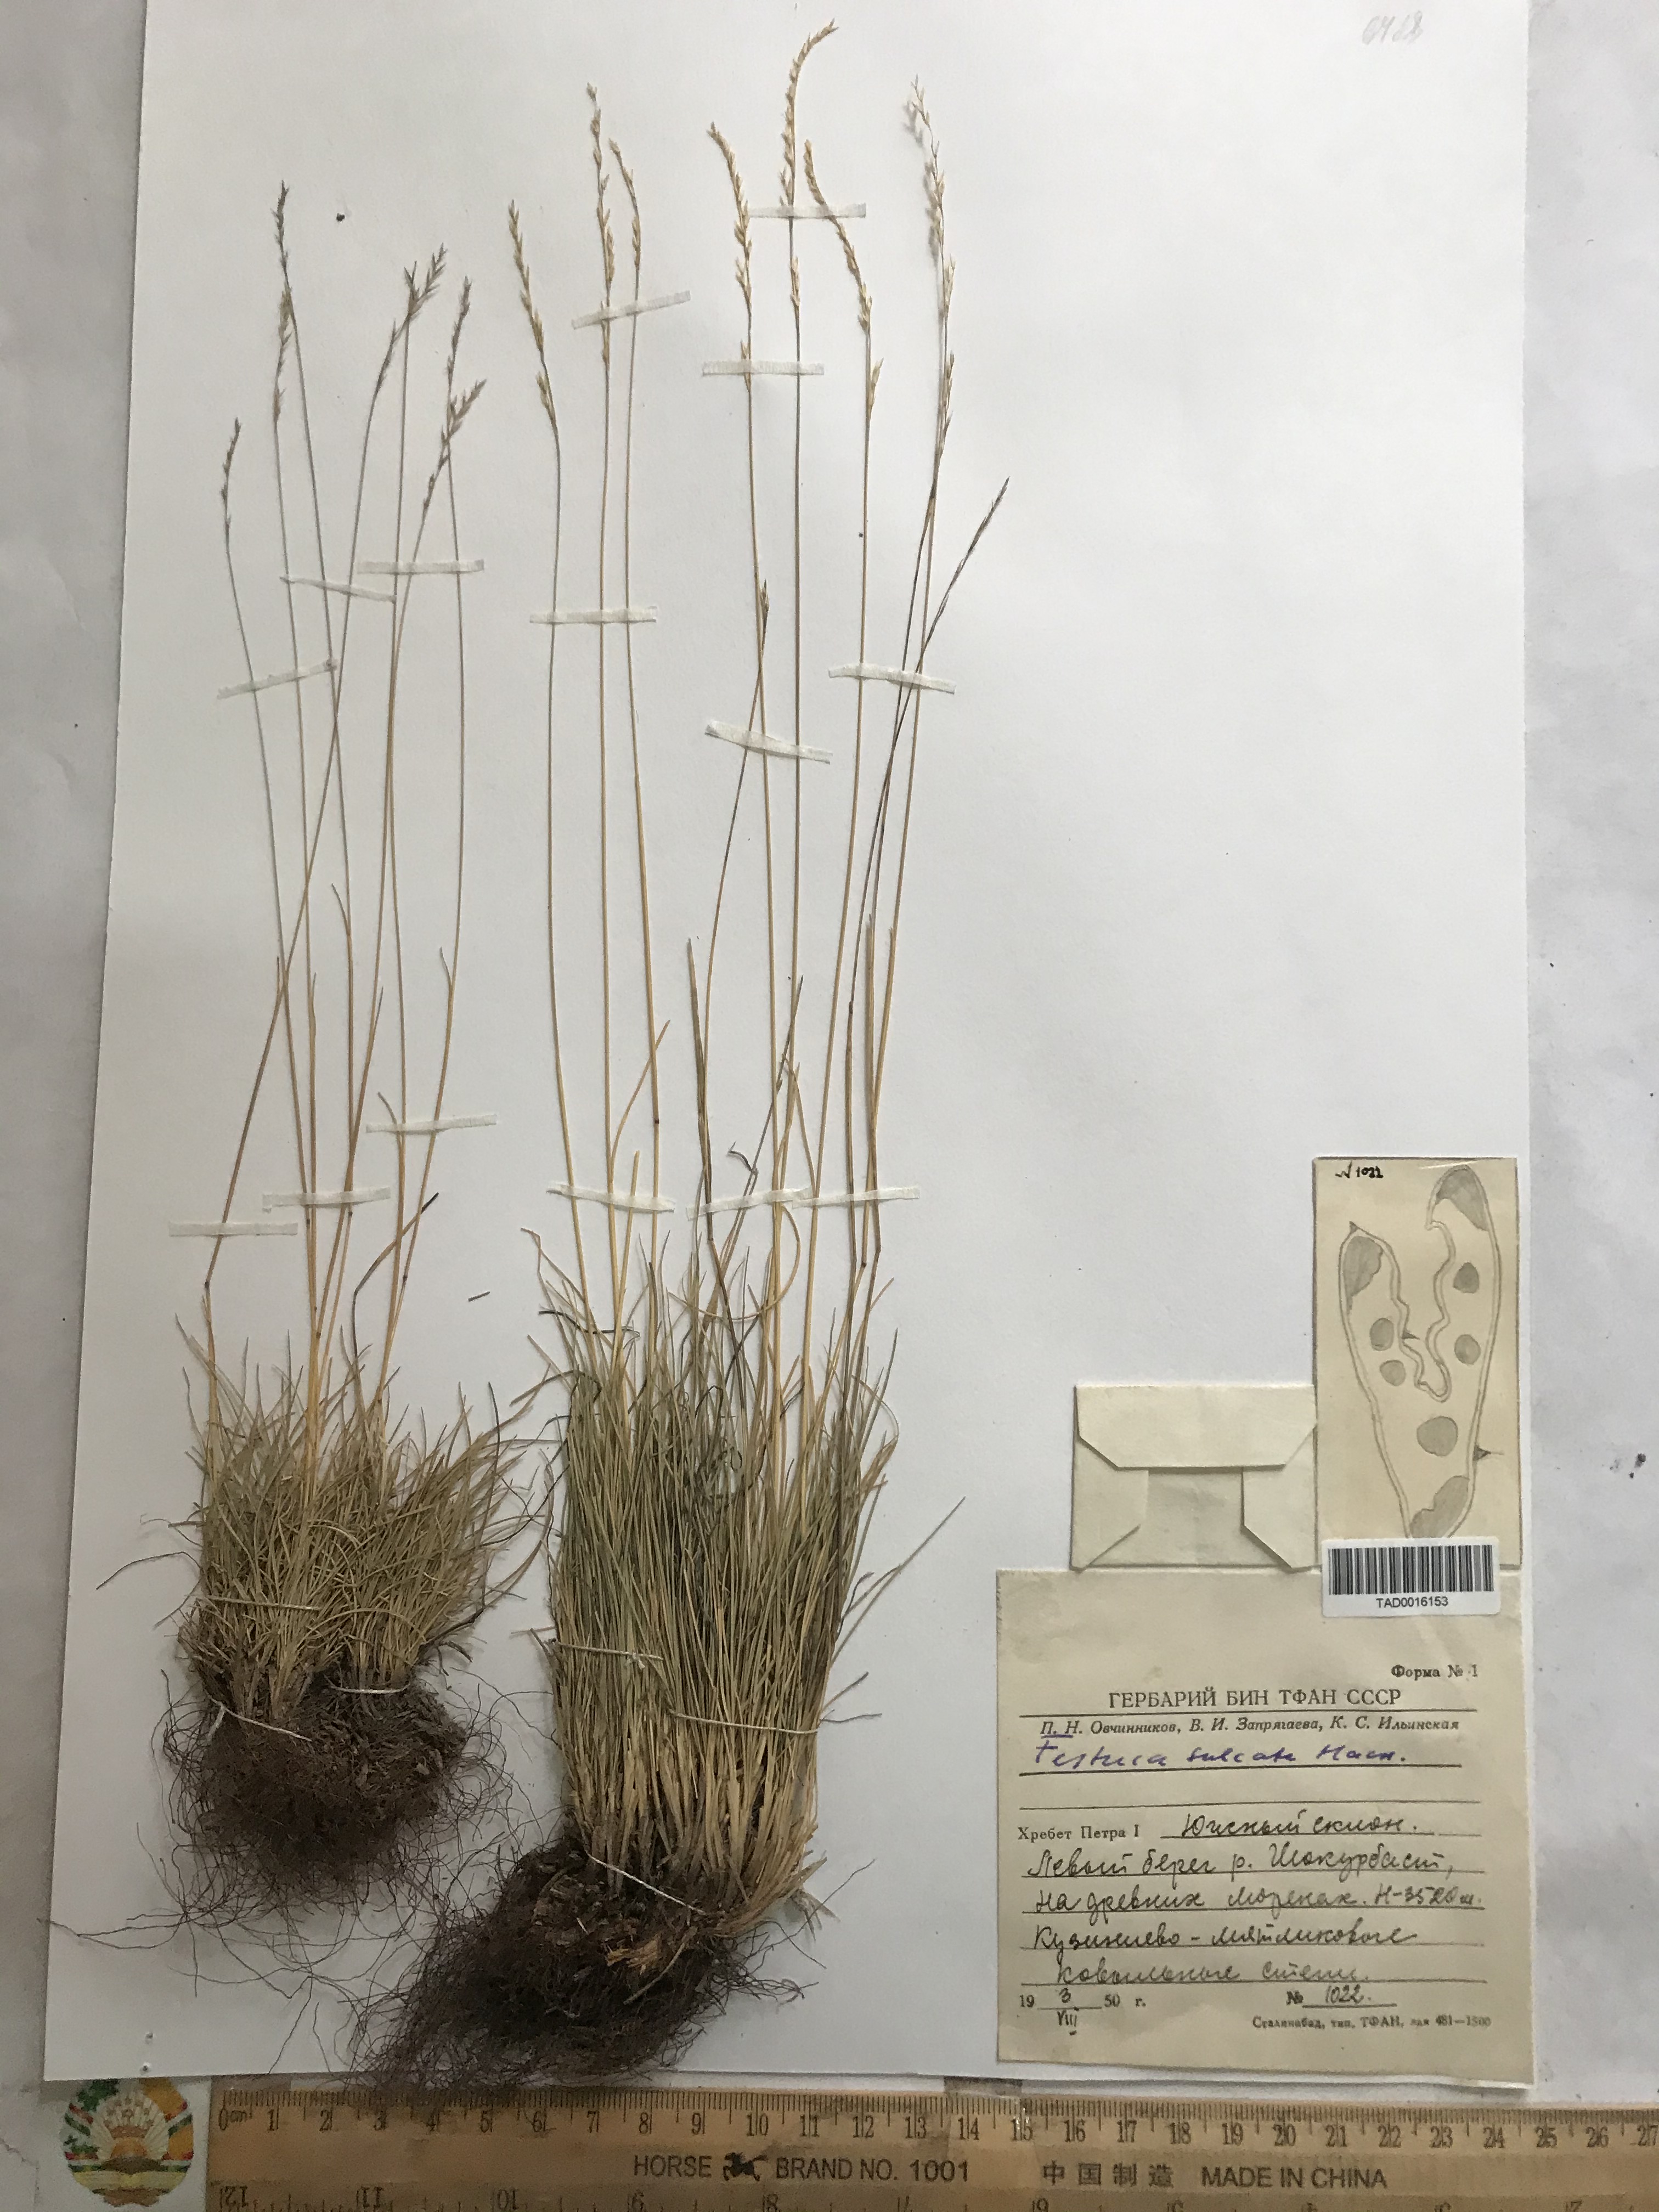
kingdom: Plantae
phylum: Tracheophyta
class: Liliopsida
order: Poales
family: Poaceae
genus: Festuca
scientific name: Festuca sulcata
